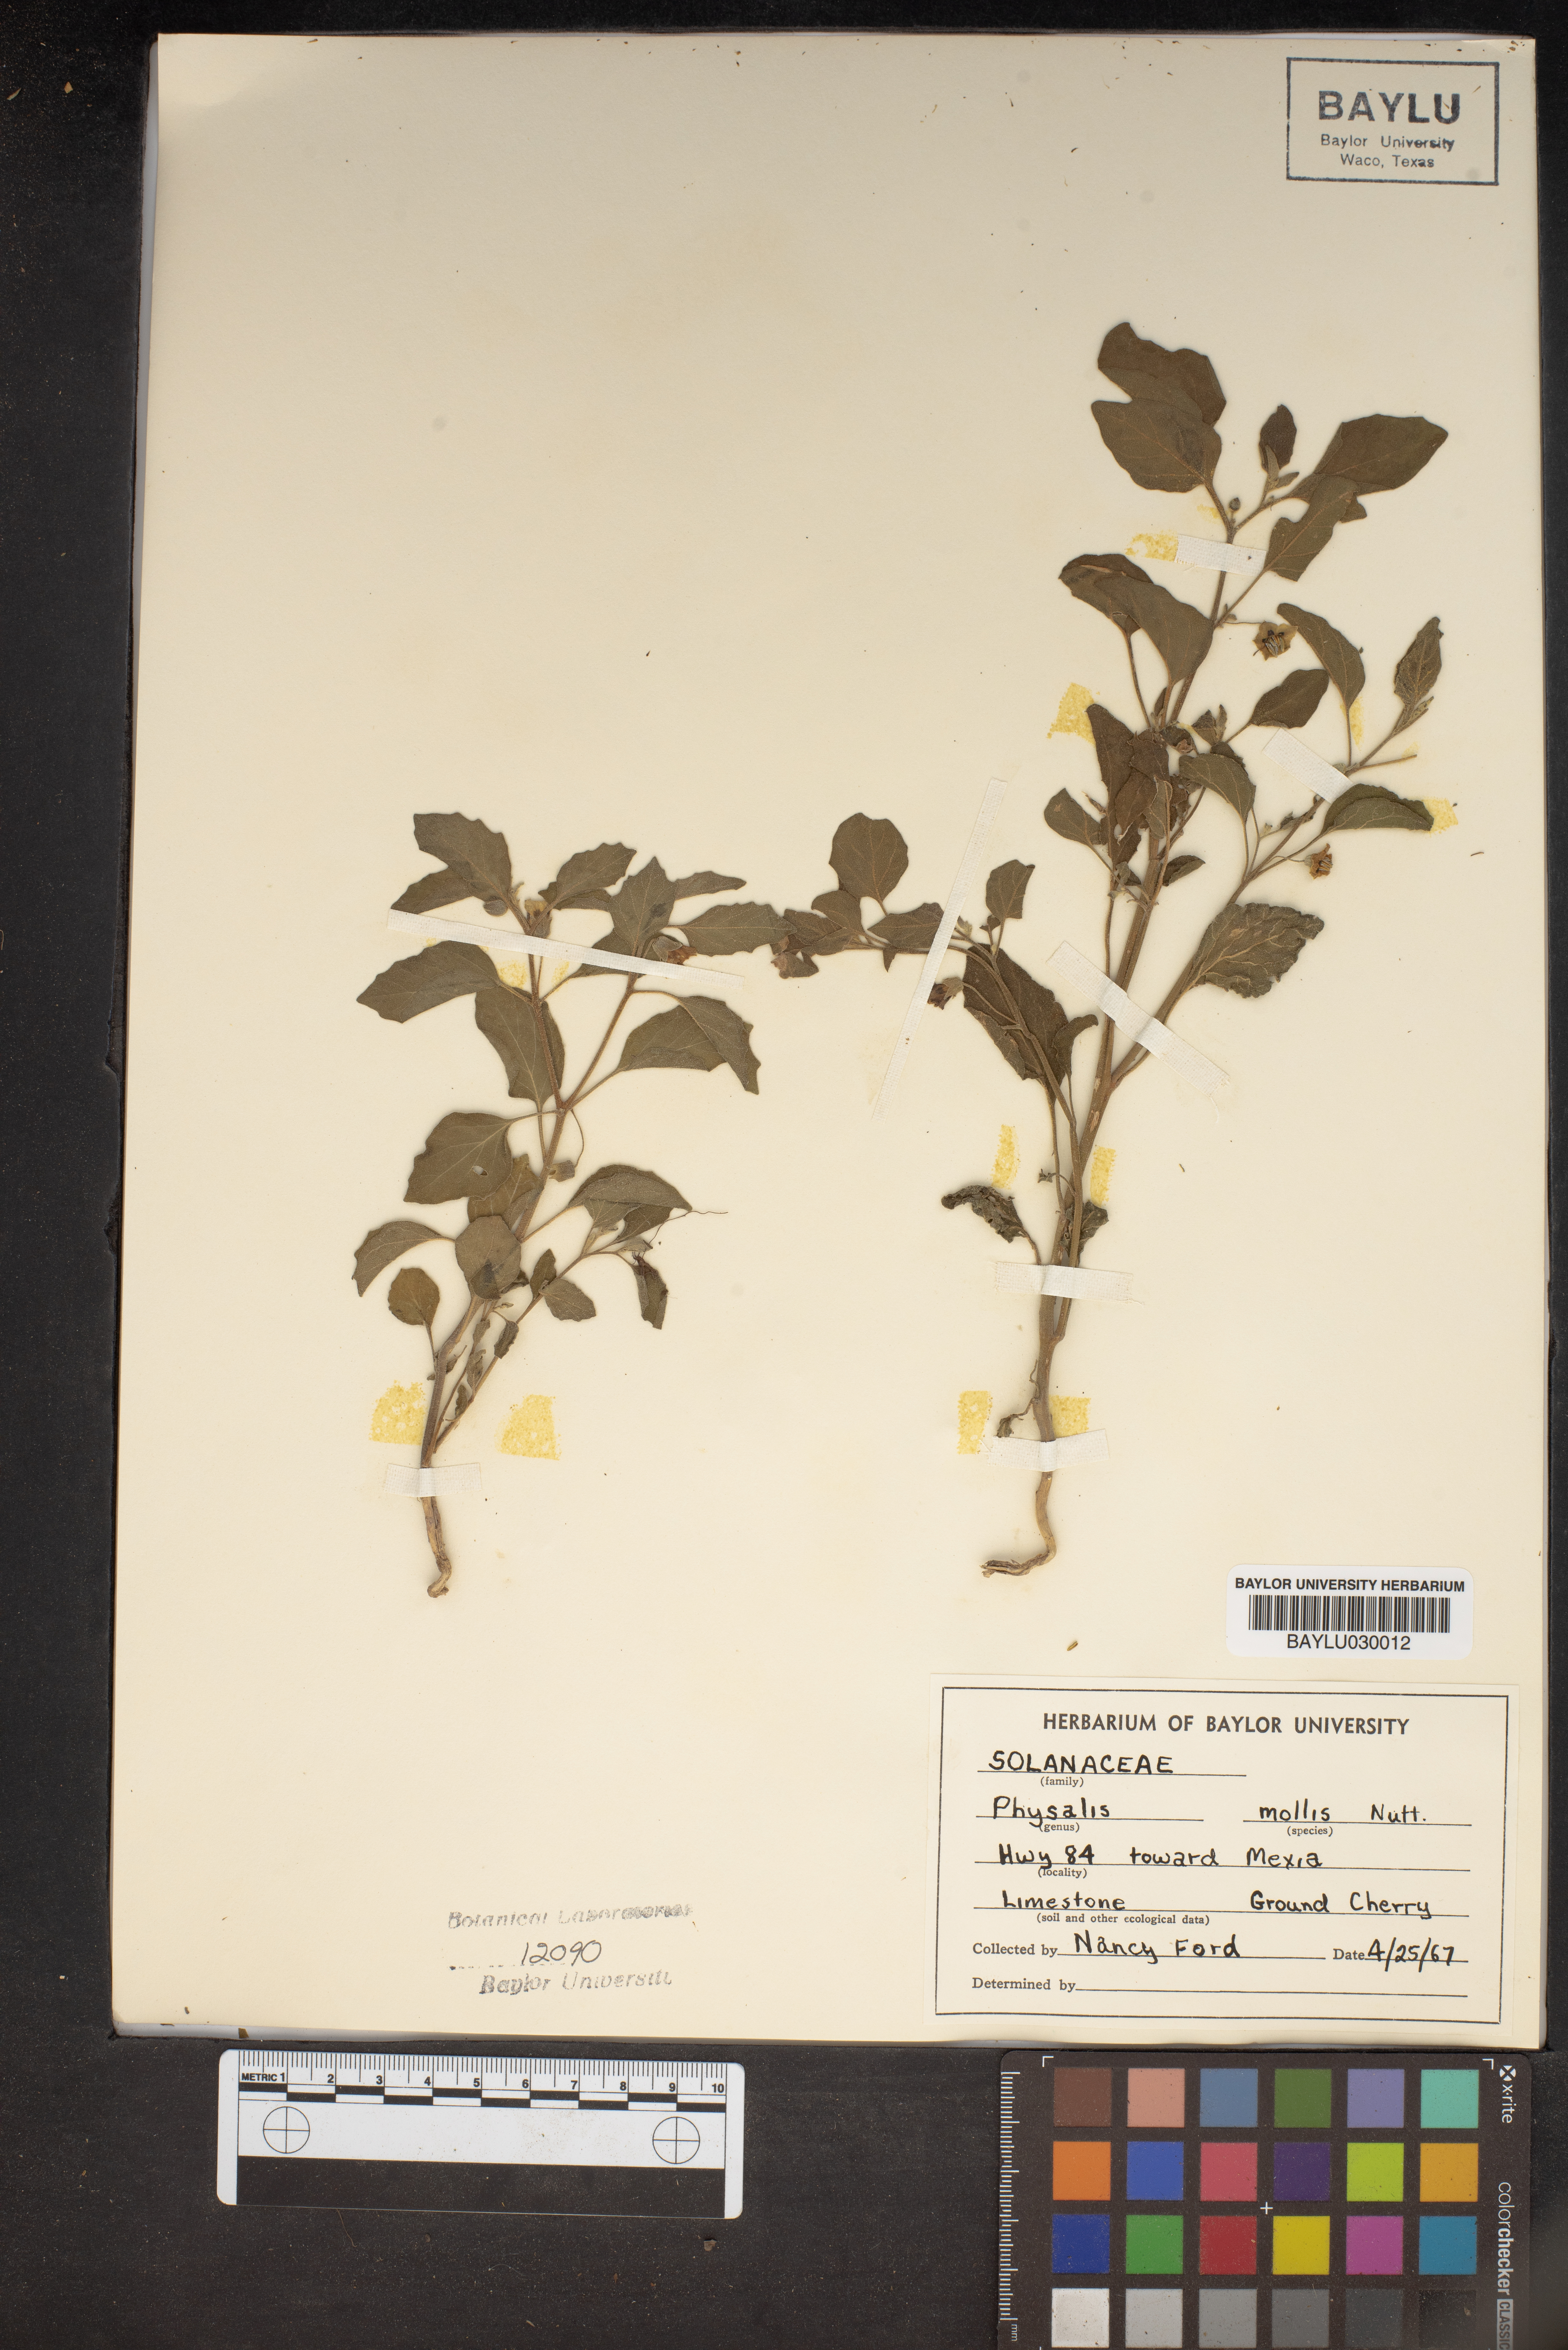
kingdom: Plantae
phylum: Tracheophyta
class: Magnoliopsida
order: Solanales
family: Solanaceae
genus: Physalis
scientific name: Physalis mollis
